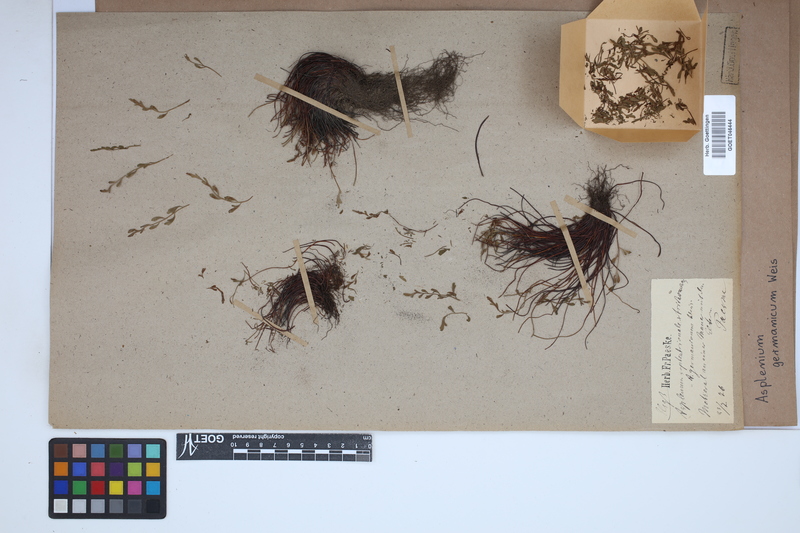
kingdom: Plantae
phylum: Tracheophyta
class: Polypodiopsida
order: Polypodiales
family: Aspleniaceae
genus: Asplenium
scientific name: Asplenium
